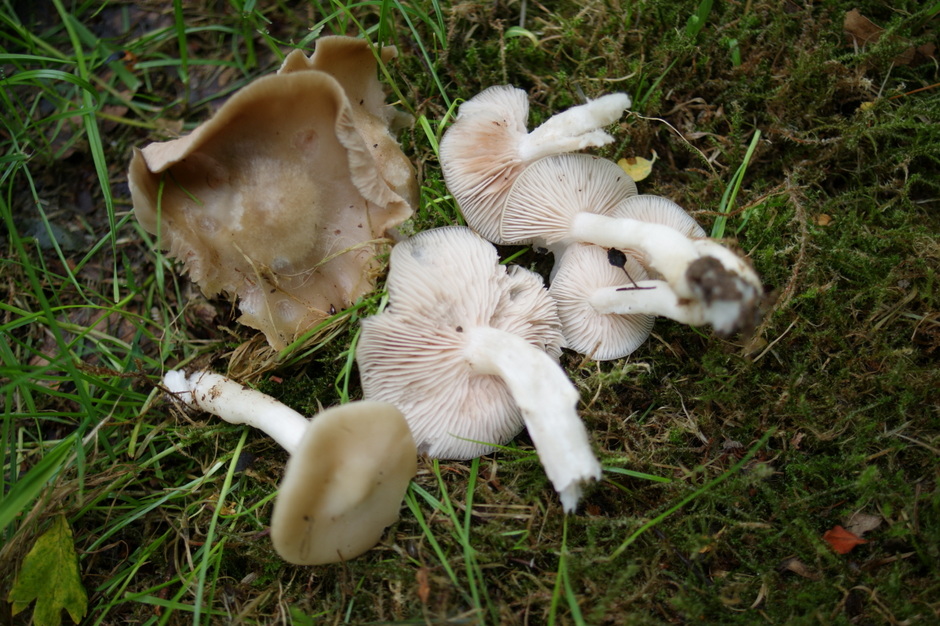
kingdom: Fungi
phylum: Basidiomycota
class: Agaricomycetes
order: Agaricales
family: Entolomataceae
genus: Entoloma
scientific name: Entoloma clypeatum
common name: flammet rødblad
